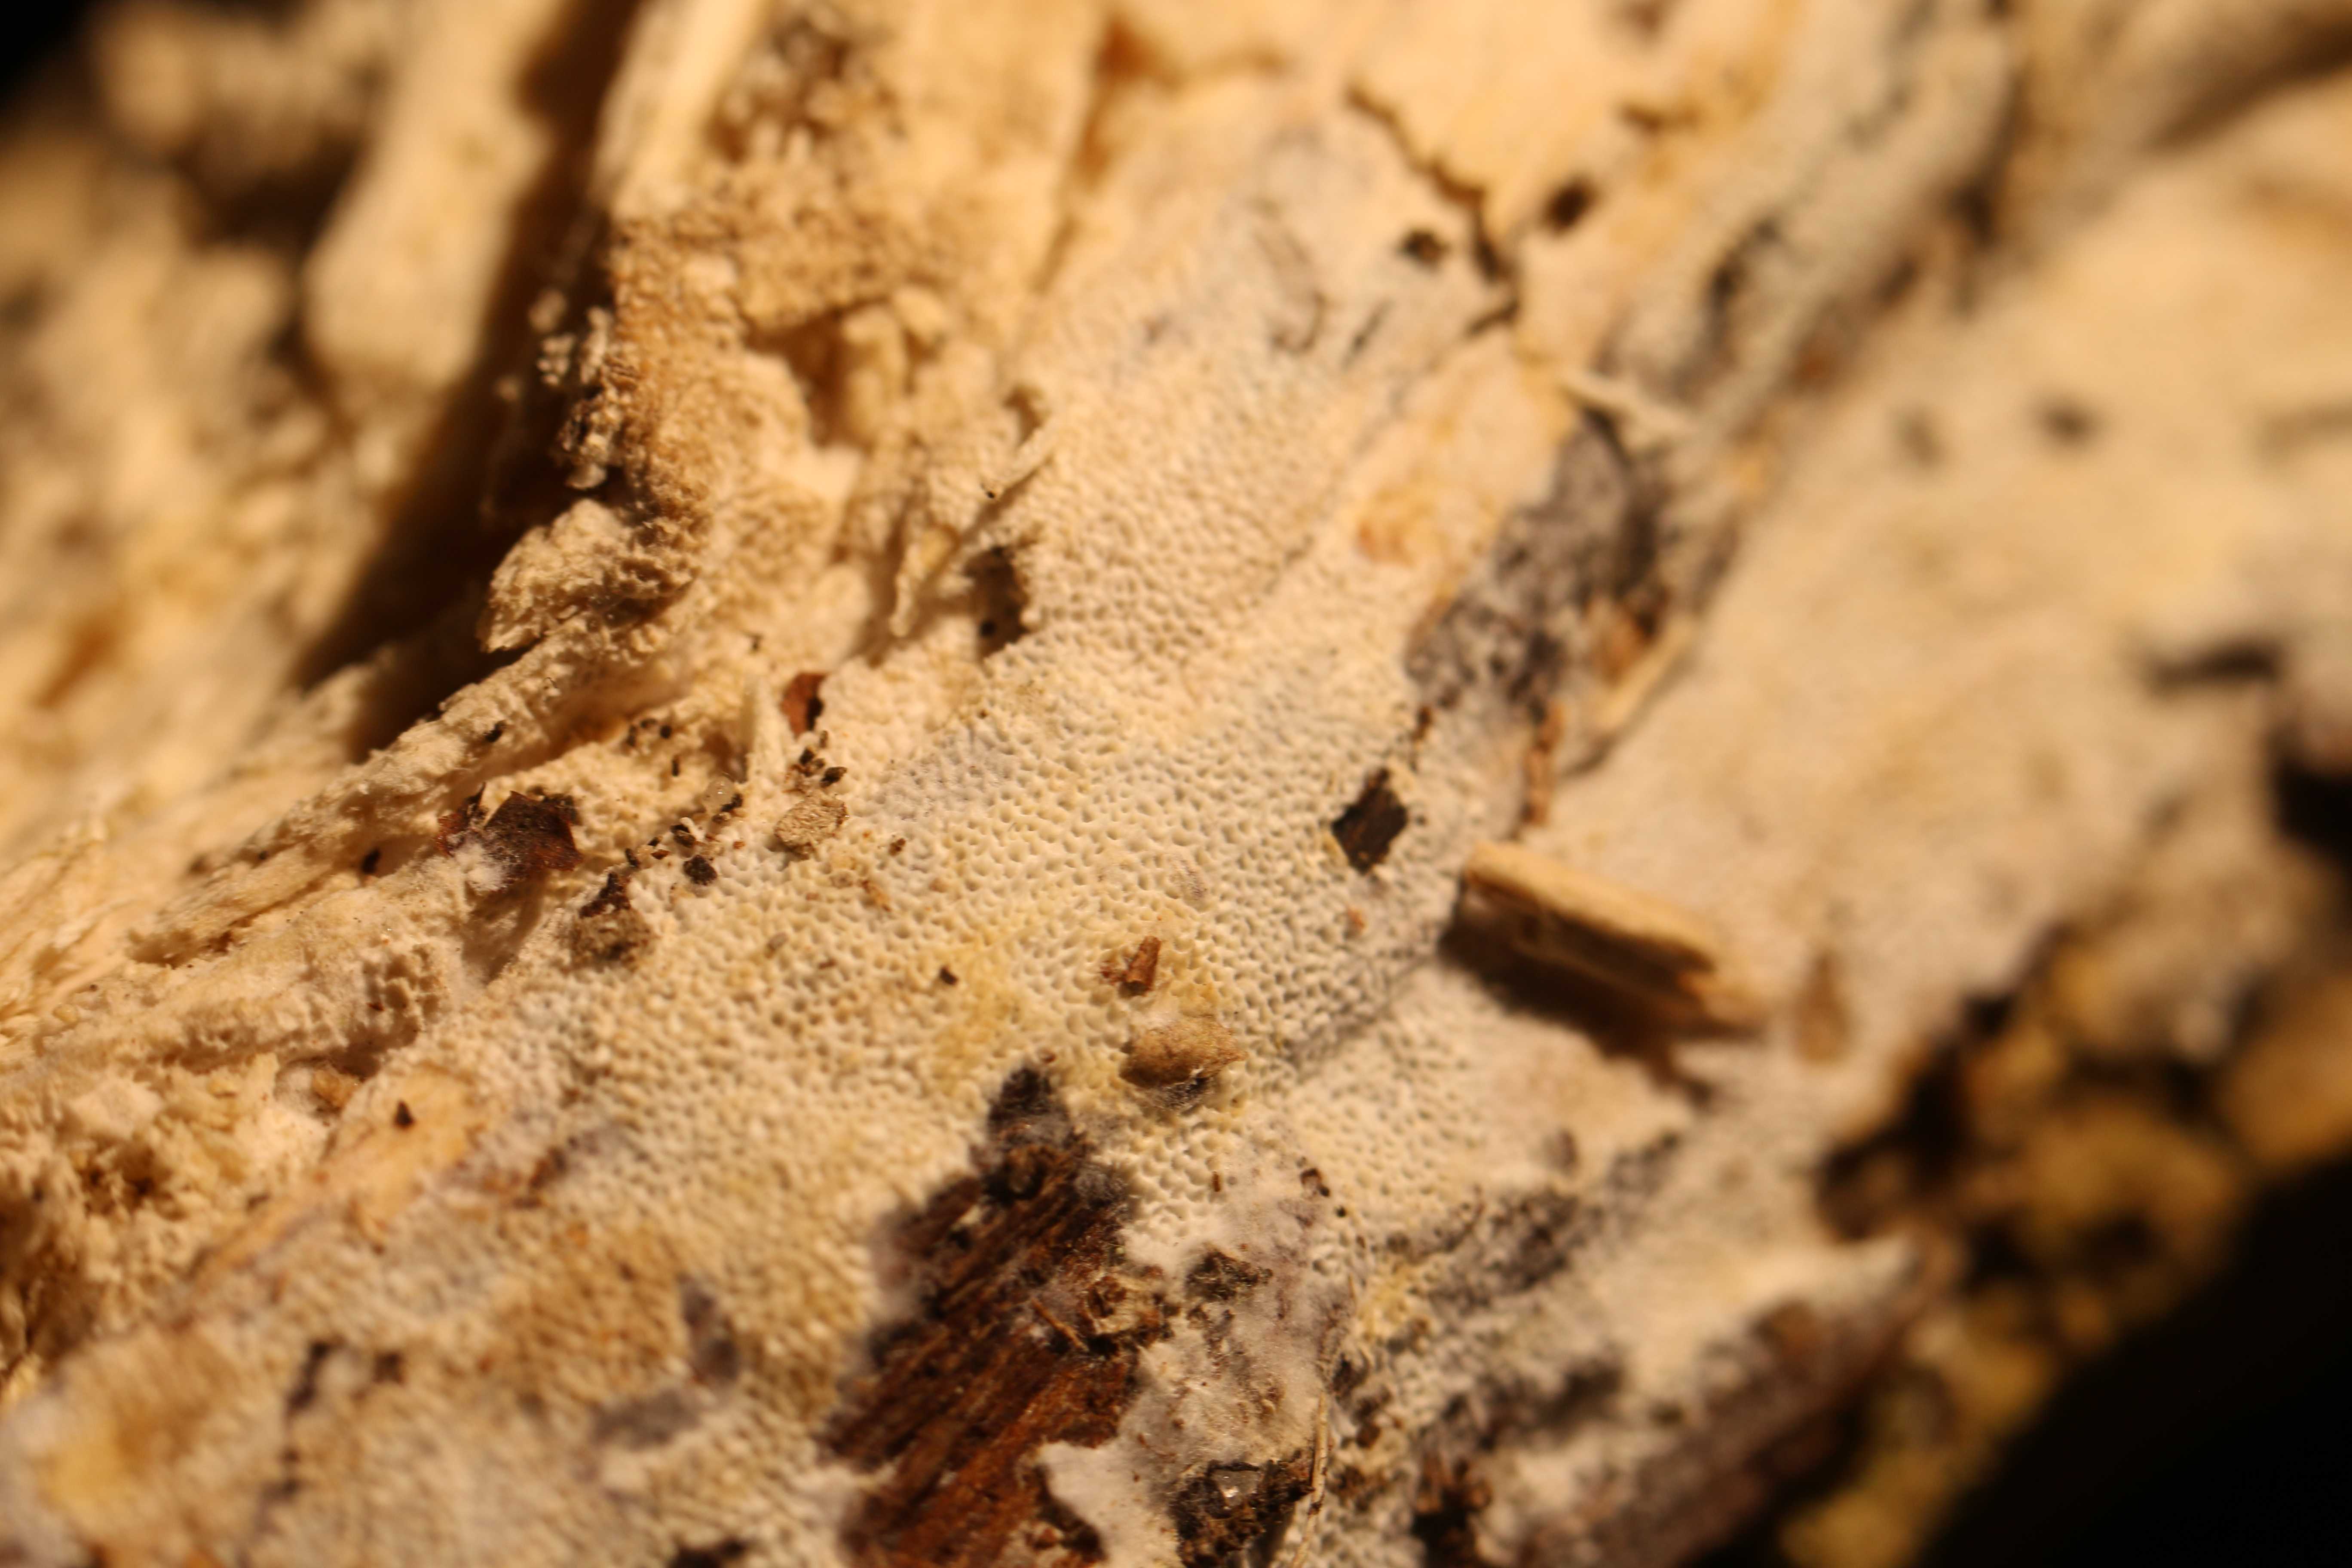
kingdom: Fungi
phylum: Basidiomycota
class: Agaricomycetes
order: Hymenochaetales
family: Schizoporaceae
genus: Xylodon
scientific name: Xylodon flaviporus
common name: gulporet tandsvamp
